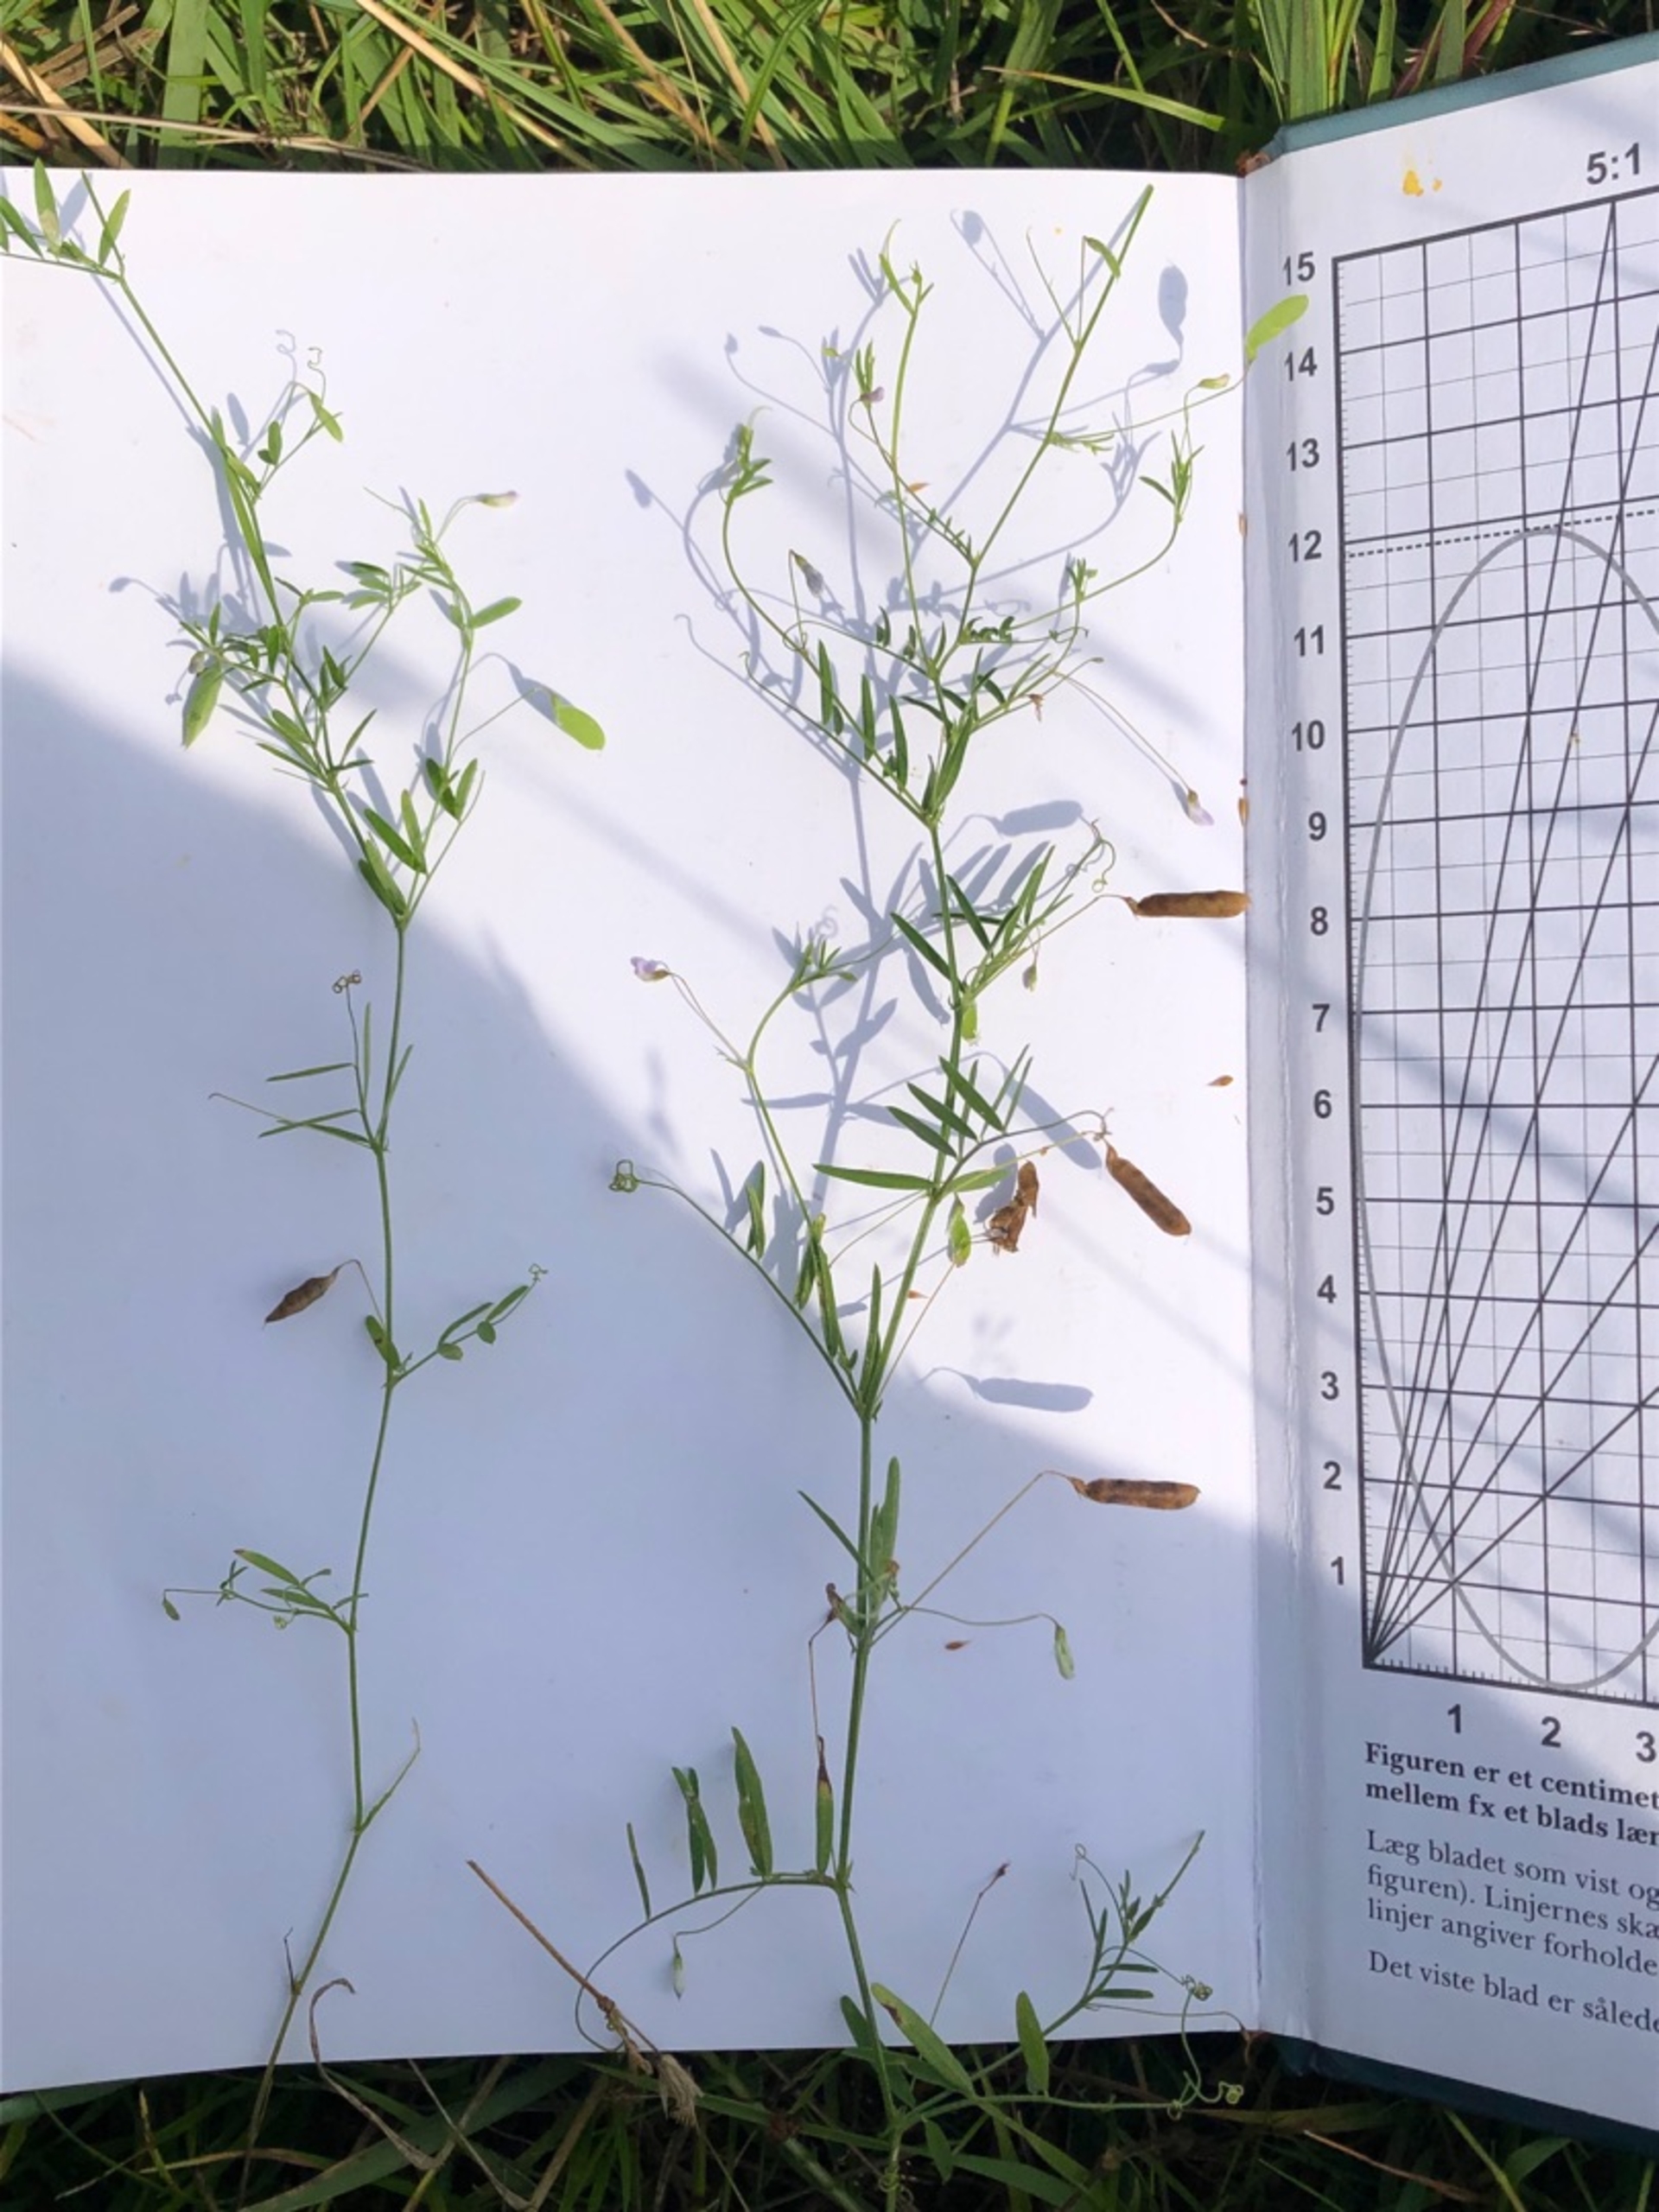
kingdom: Plantae
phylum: Tracheophyta
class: Magnoliopsida
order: Fabales
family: Fabaceae
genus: Vicia
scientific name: Vicia tetrasperma
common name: Tadder-vikke
